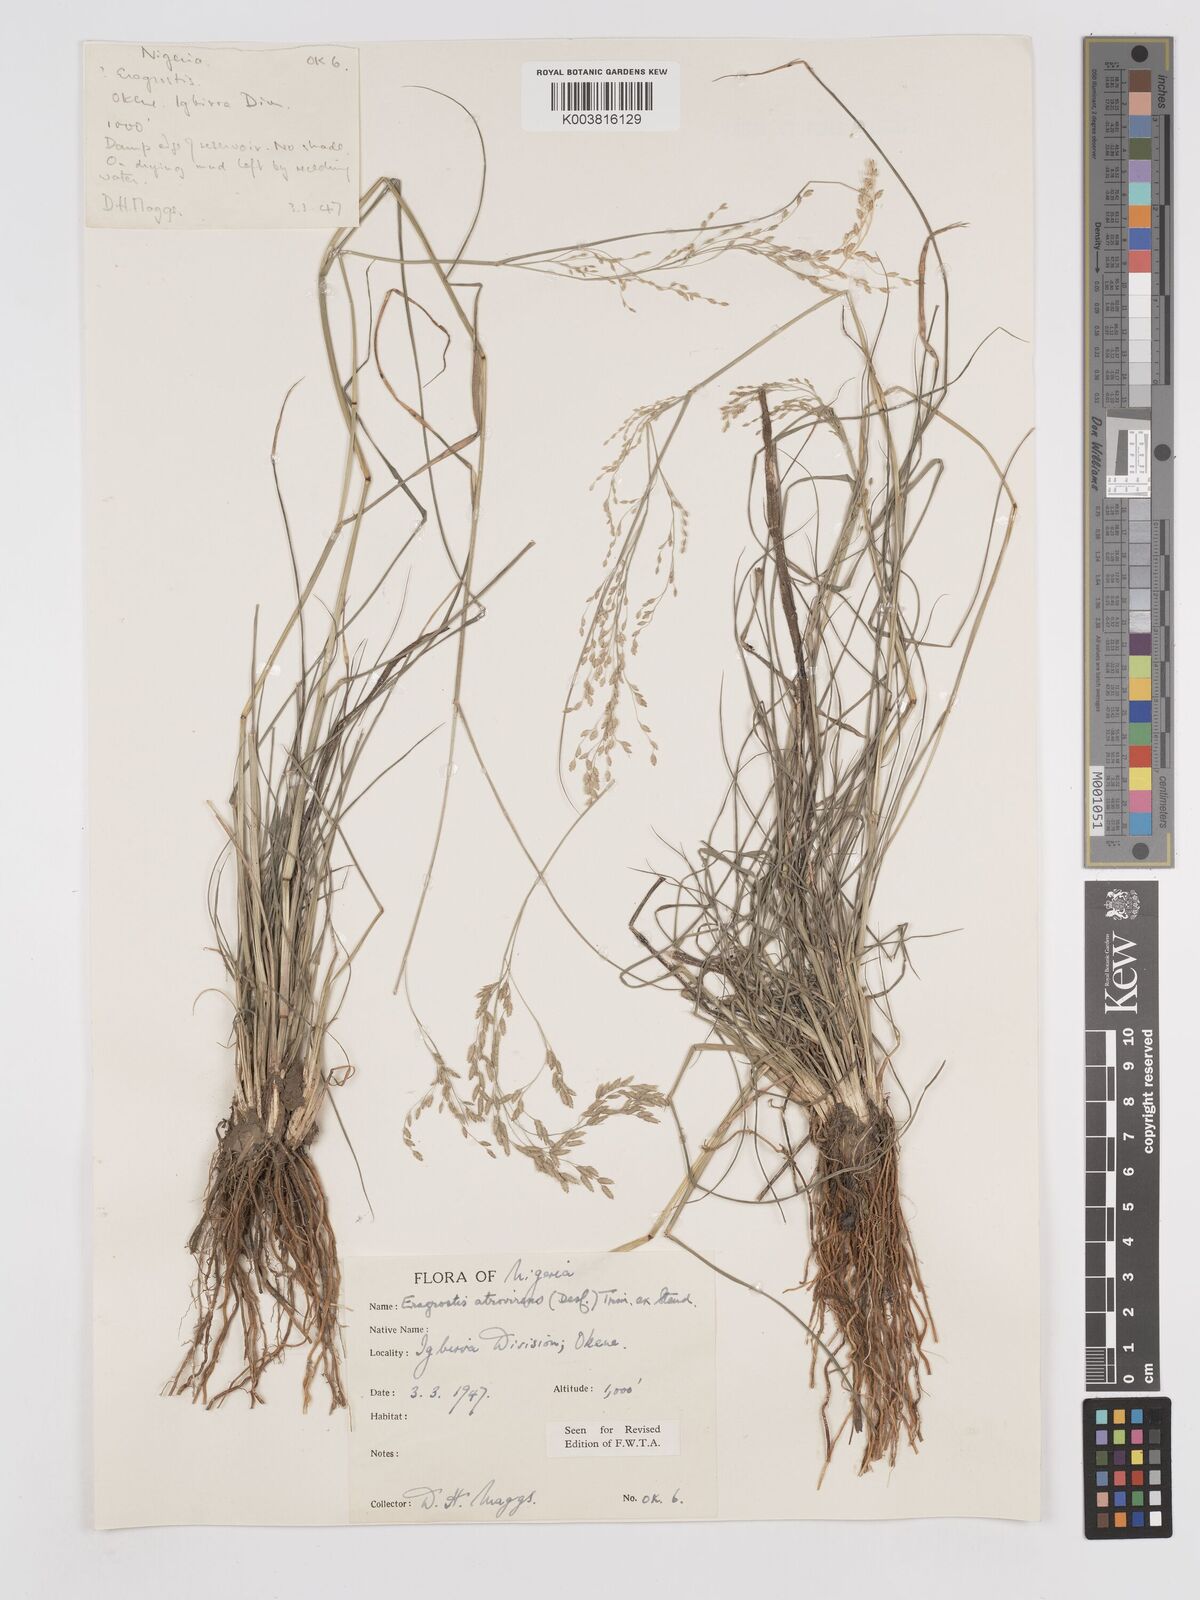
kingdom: Plantae
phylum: Tracheophyta
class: Liliopsida
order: Poales
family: Poaceae
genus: Eragrostis
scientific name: Eragrostis atrovirens
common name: Thalia lovegrass
